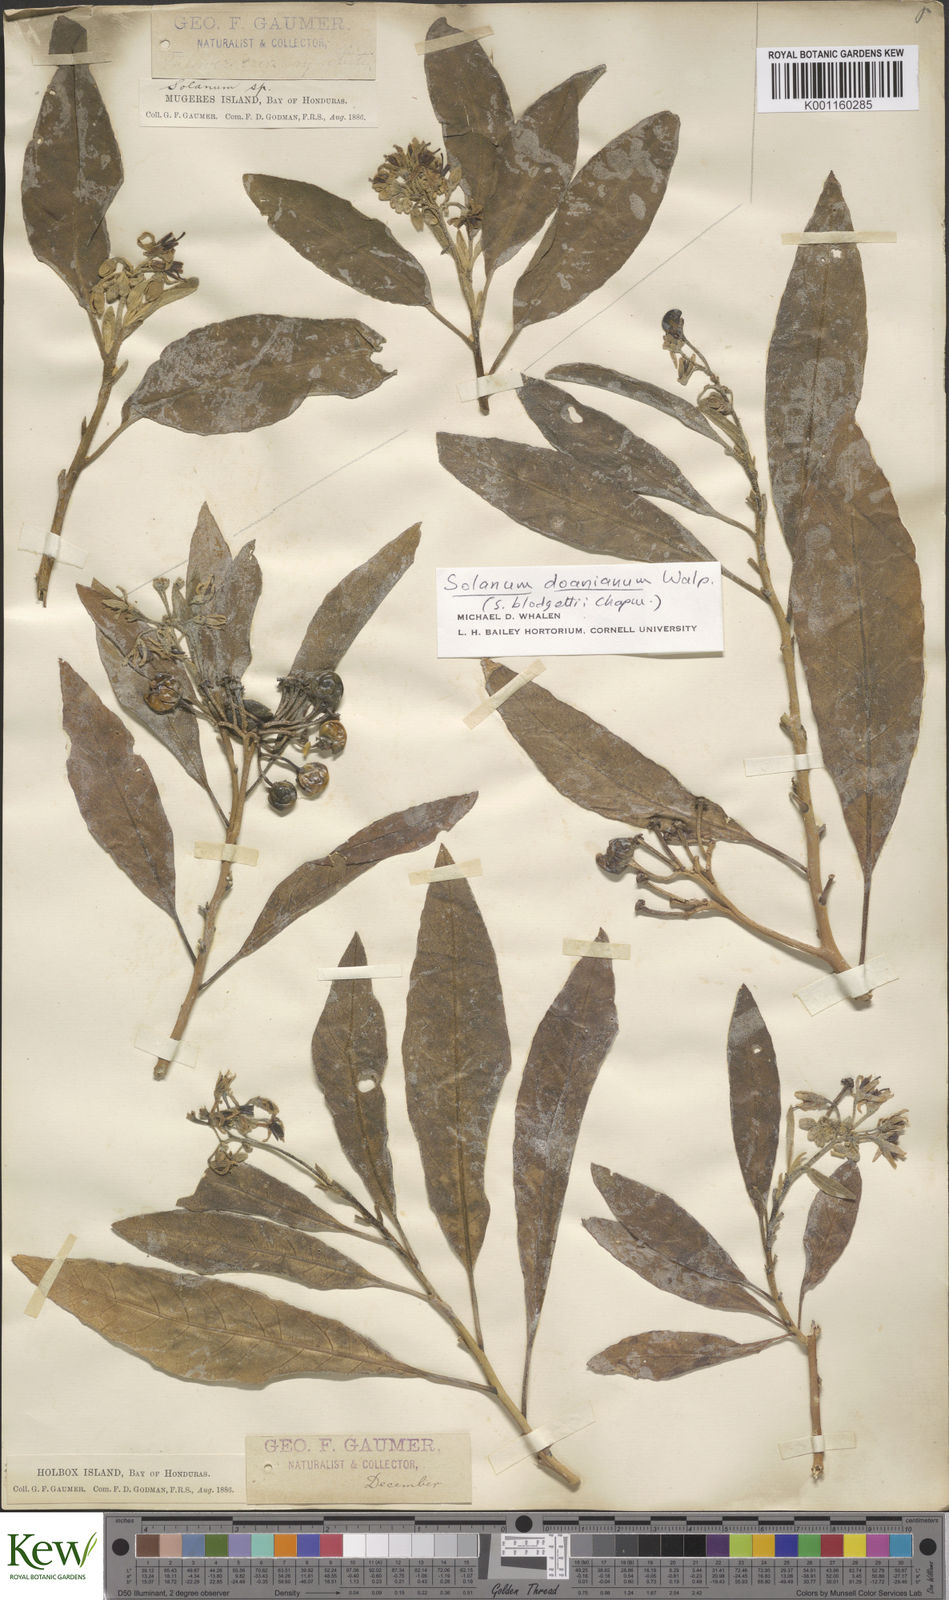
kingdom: Plantae
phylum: Tracheophyta
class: Magnoliopsida
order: Solanales
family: Solanaceae
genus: Solanum
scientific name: Solanum donianum
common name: Mullein nightshade
